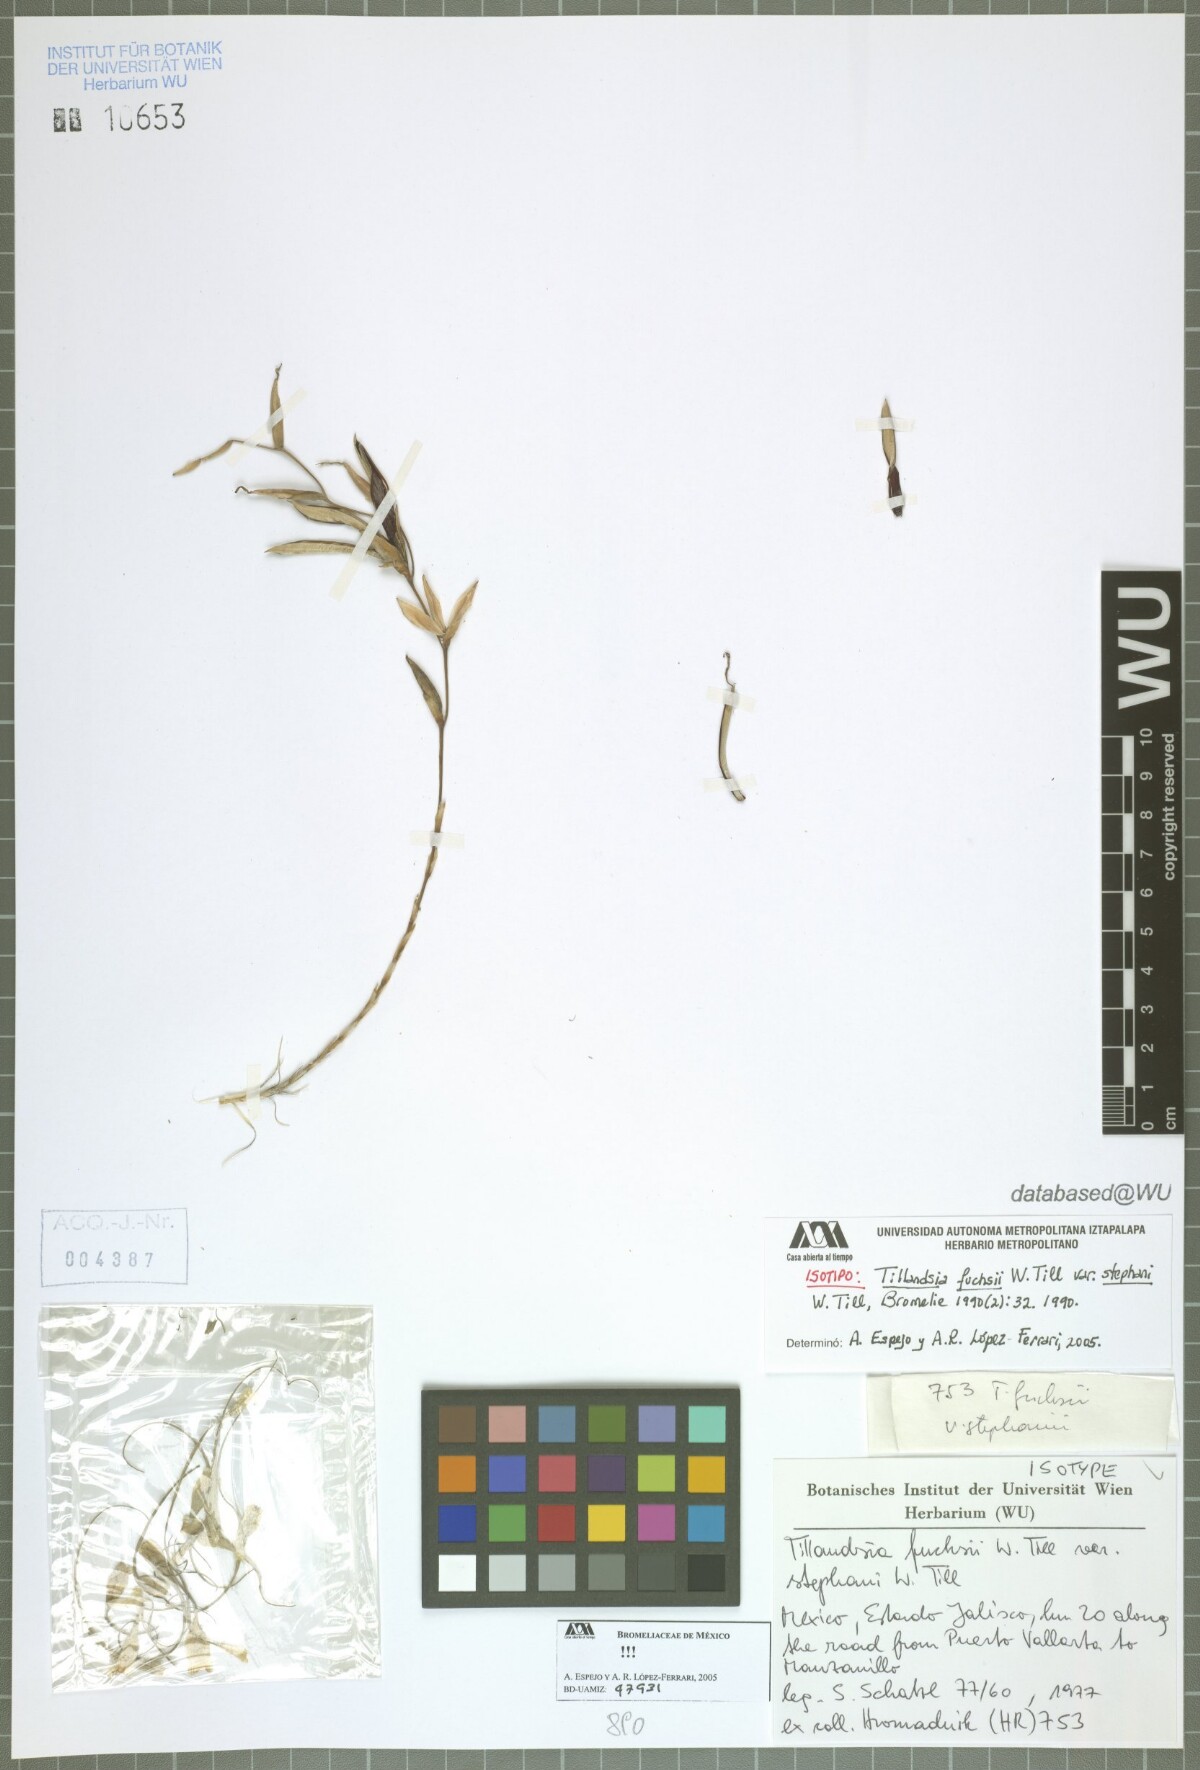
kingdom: Plantae
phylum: Tracheophyta
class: Liliopsida
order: Poales
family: Bromeliaceae
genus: Tillandsia
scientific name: Tillandsia fuchsii
